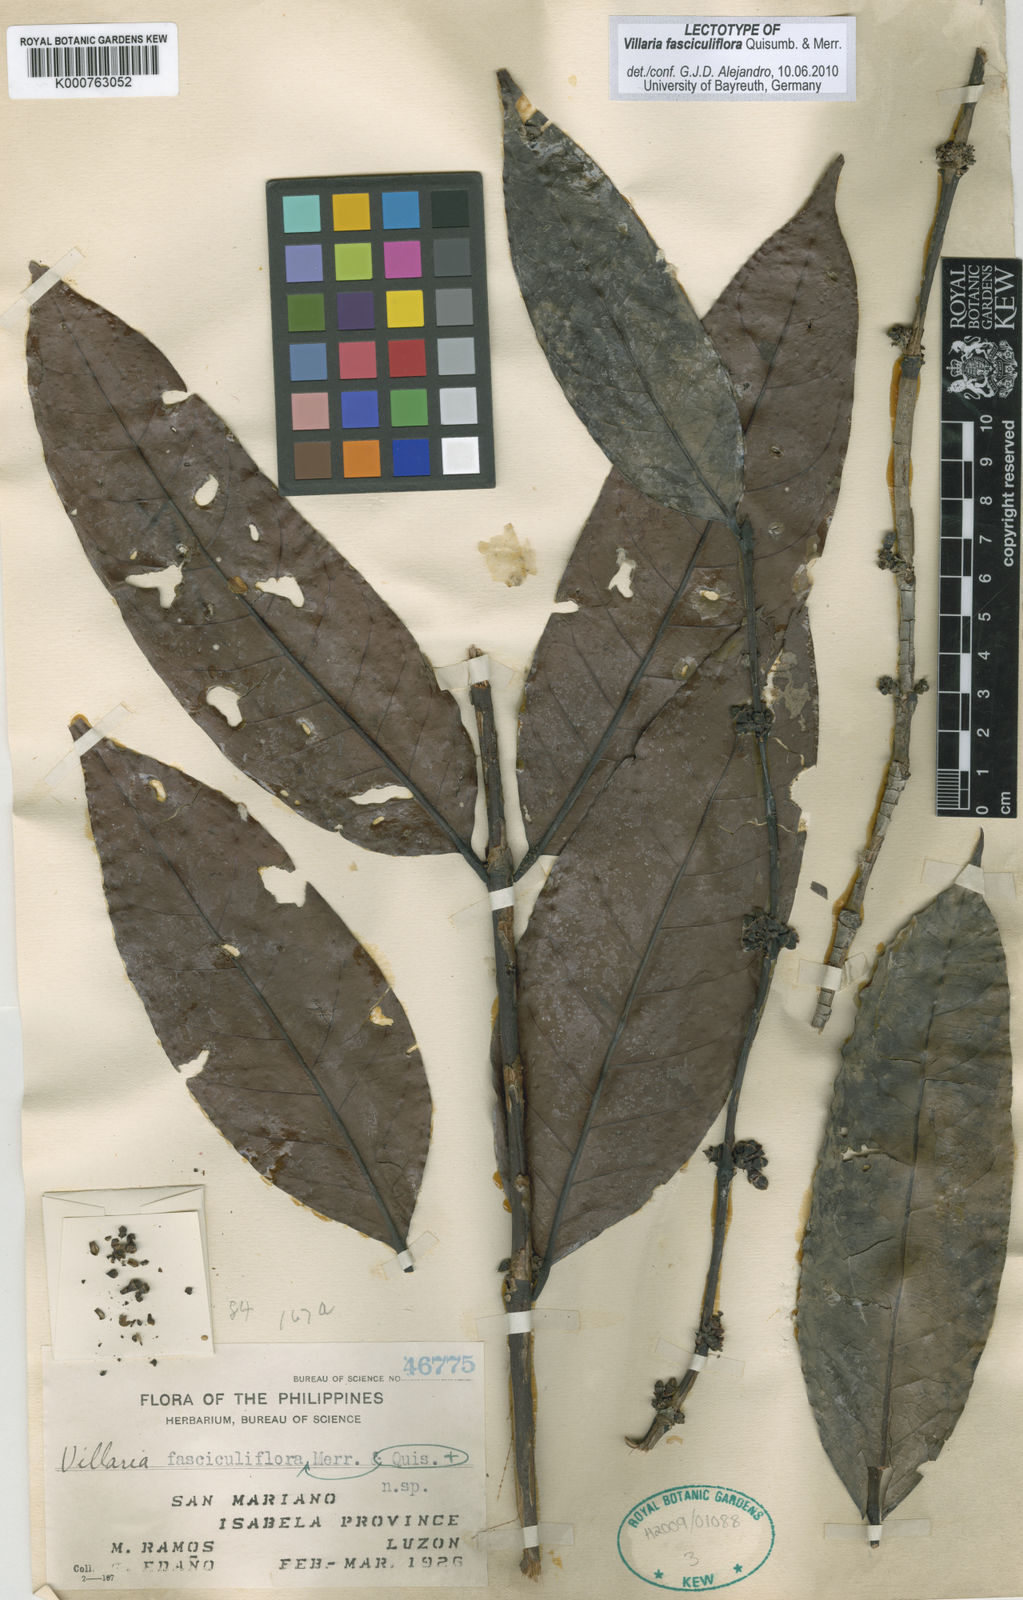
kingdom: Plantae
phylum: Tracheophyta
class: Magnoliopsida
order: Gentianales
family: Rubiaceae
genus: Villaria
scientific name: Villaria fasciculiflora
